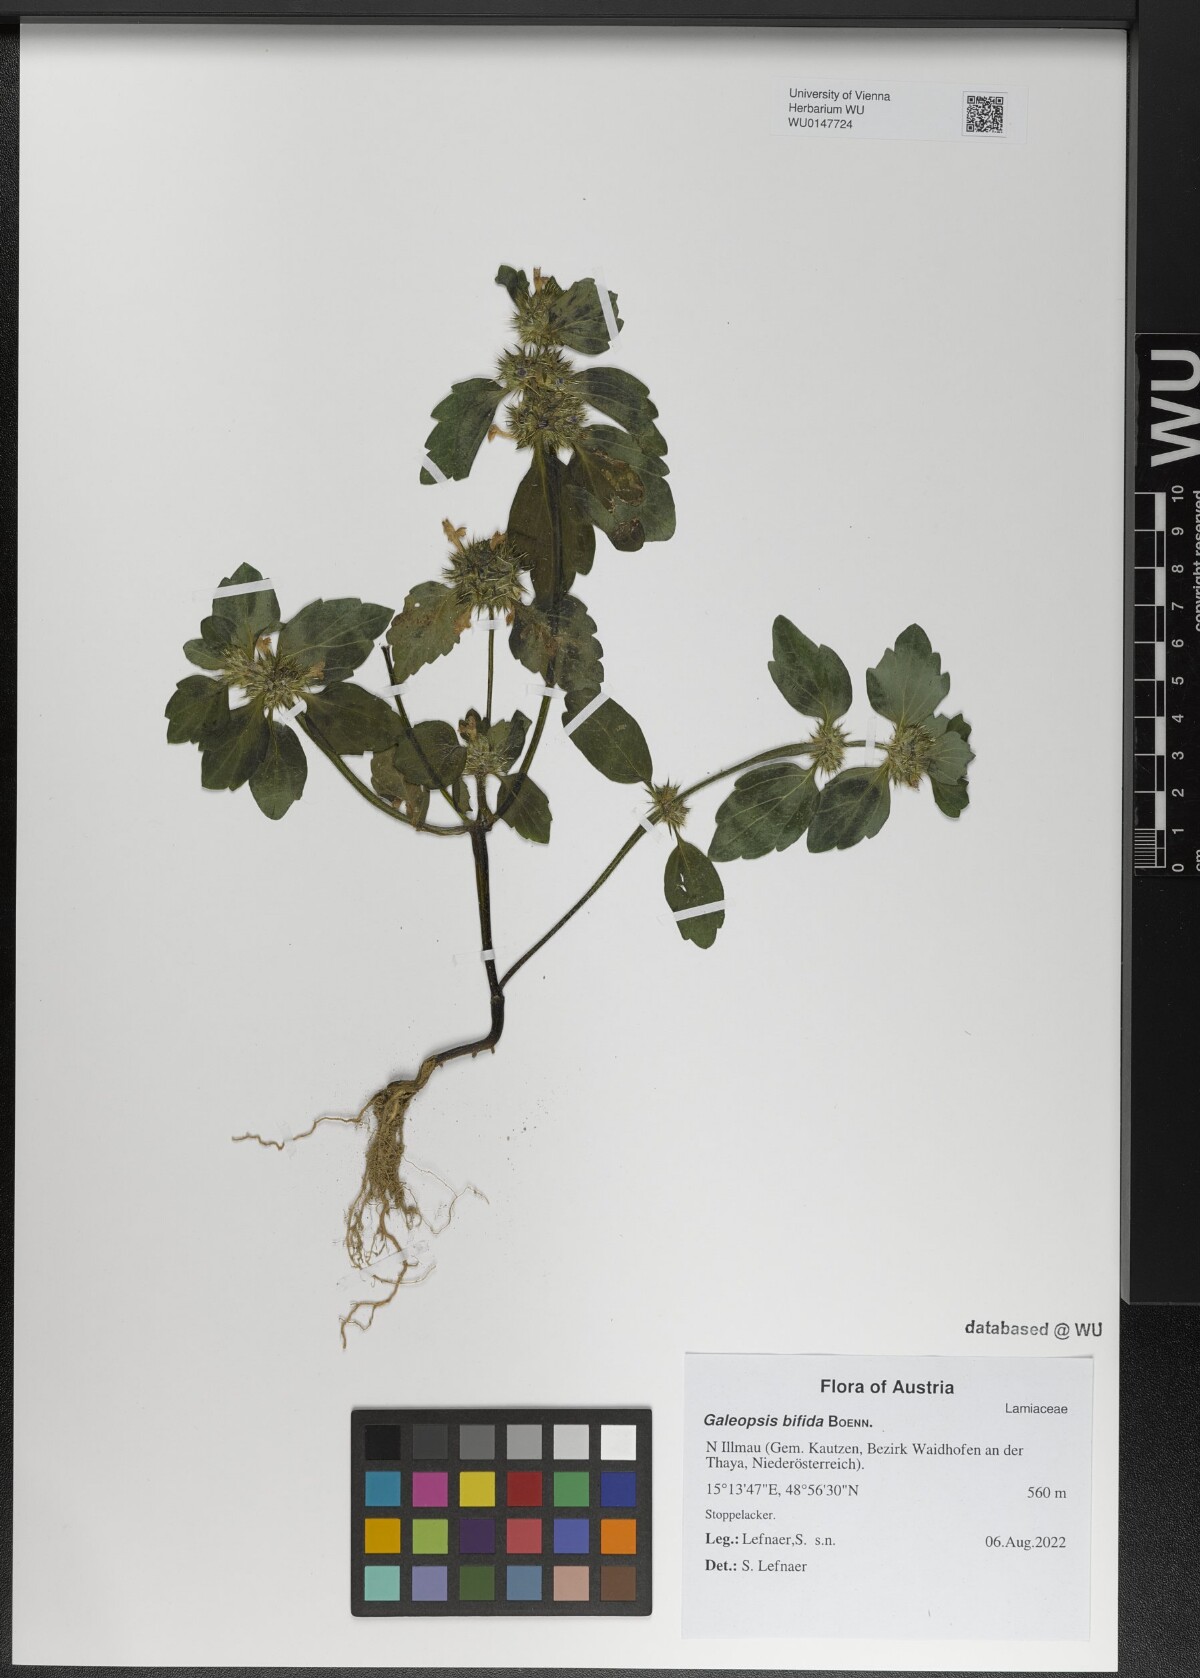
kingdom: Plantae
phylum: Tracheophyta
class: Magnoliopsida
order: Lamiales
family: Lamiaceae
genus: Galeopsis
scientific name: Galeopsis bifida
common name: Bifid hemp-nettle
